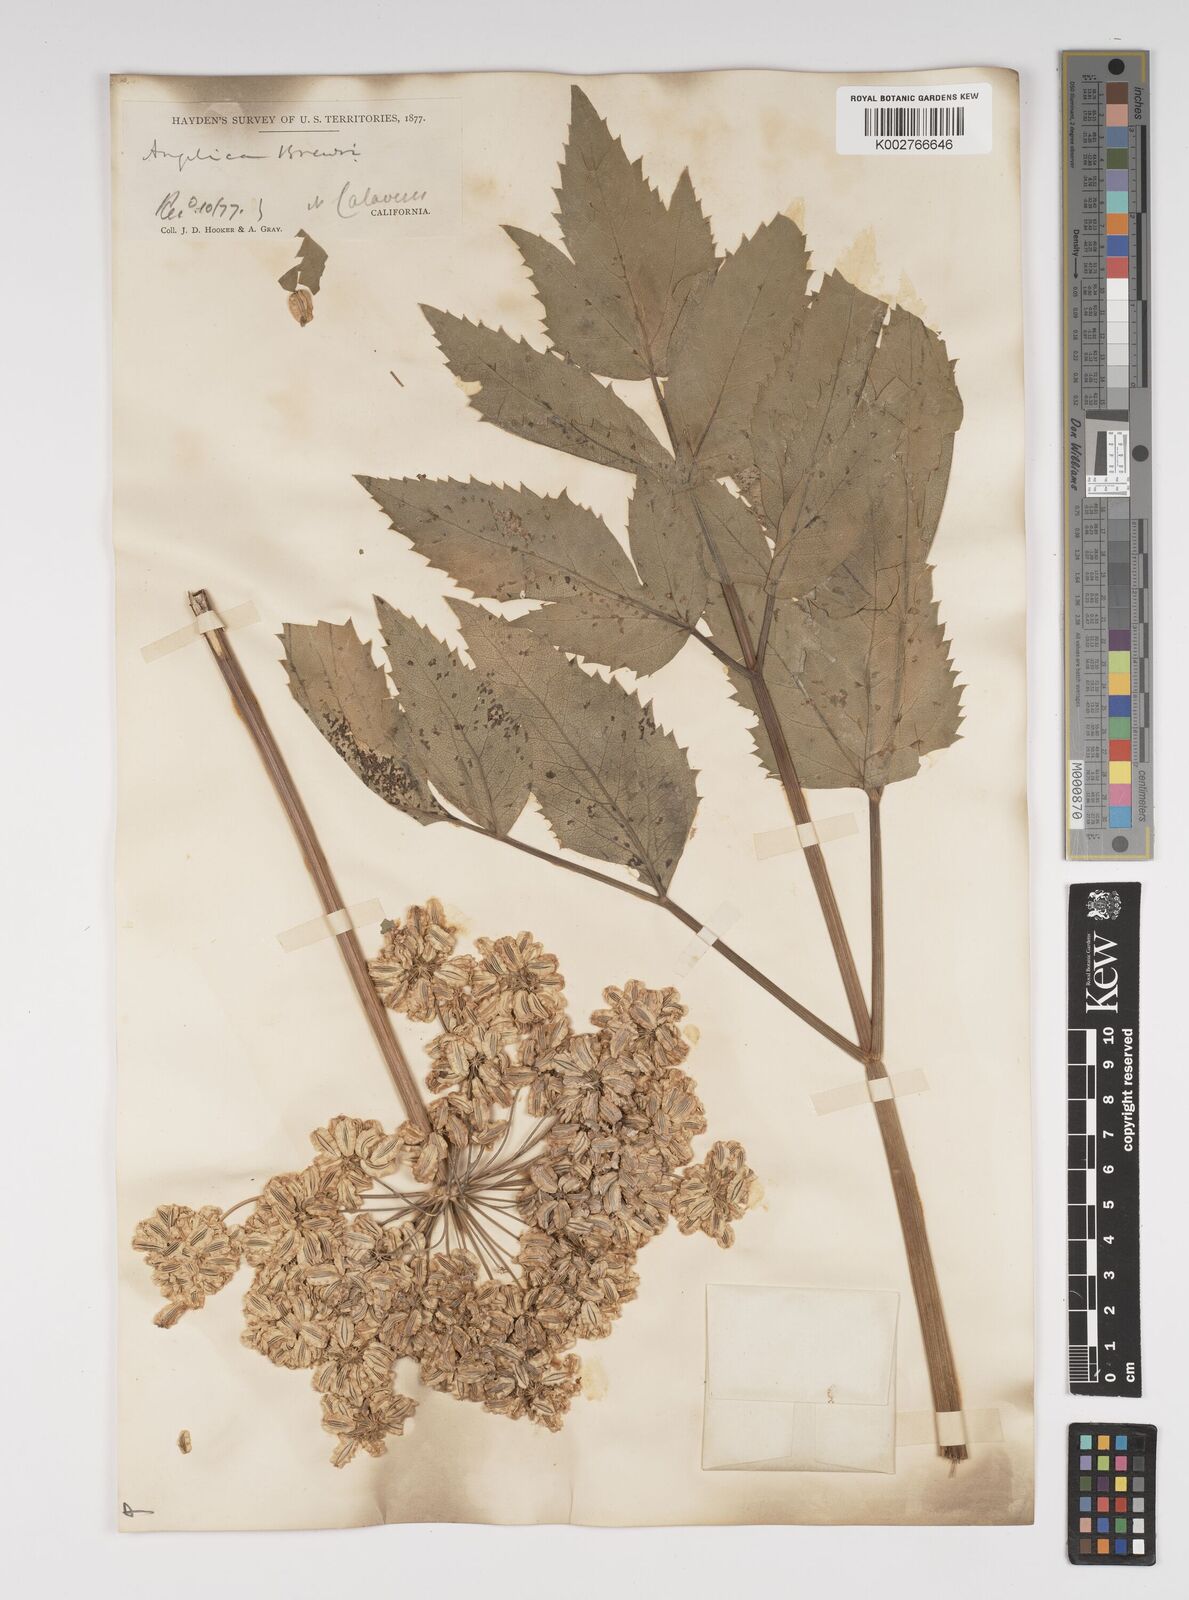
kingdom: Plantae
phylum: Tracheophyta
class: Magnoliopsida
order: Apiales
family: Apiaceae
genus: Angelica
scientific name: Angelica breweri
